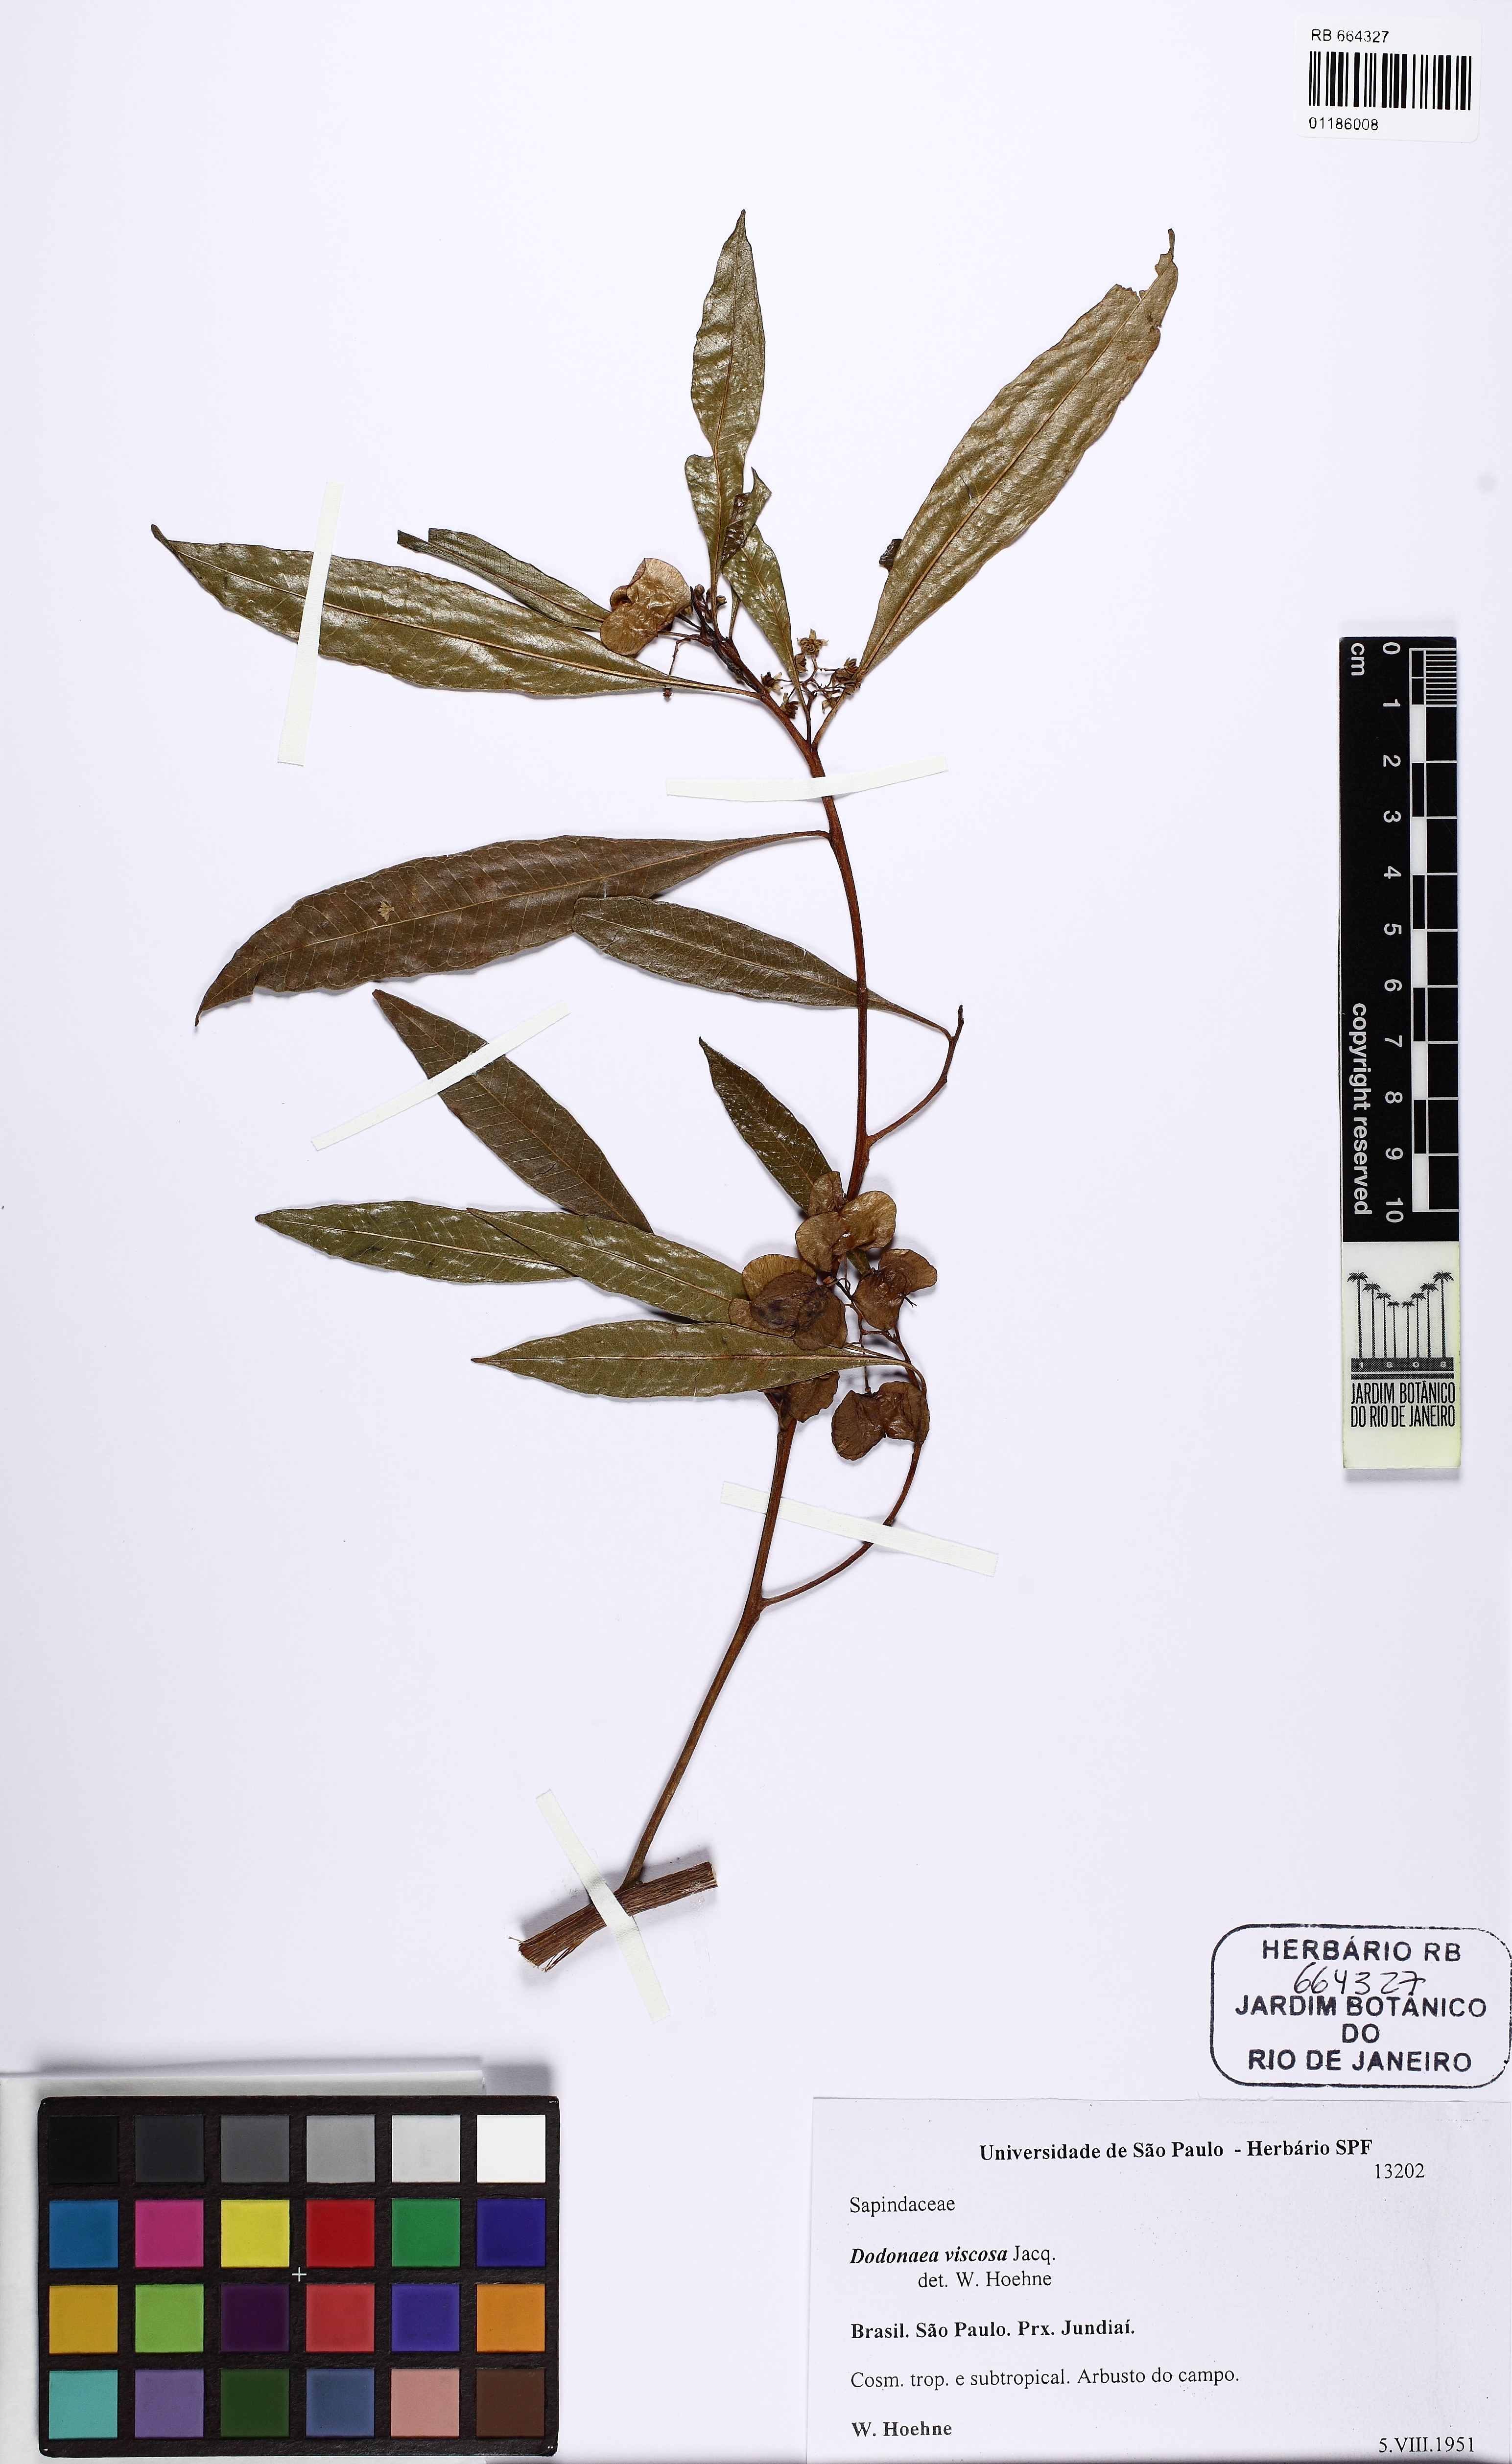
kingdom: Plantae
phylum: Tracheophyta
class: Magnoliopsida
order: Sapindales
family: Sapindaceae
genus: Dodonaea
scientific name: Dodonaea viscosa
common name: Hopbush
